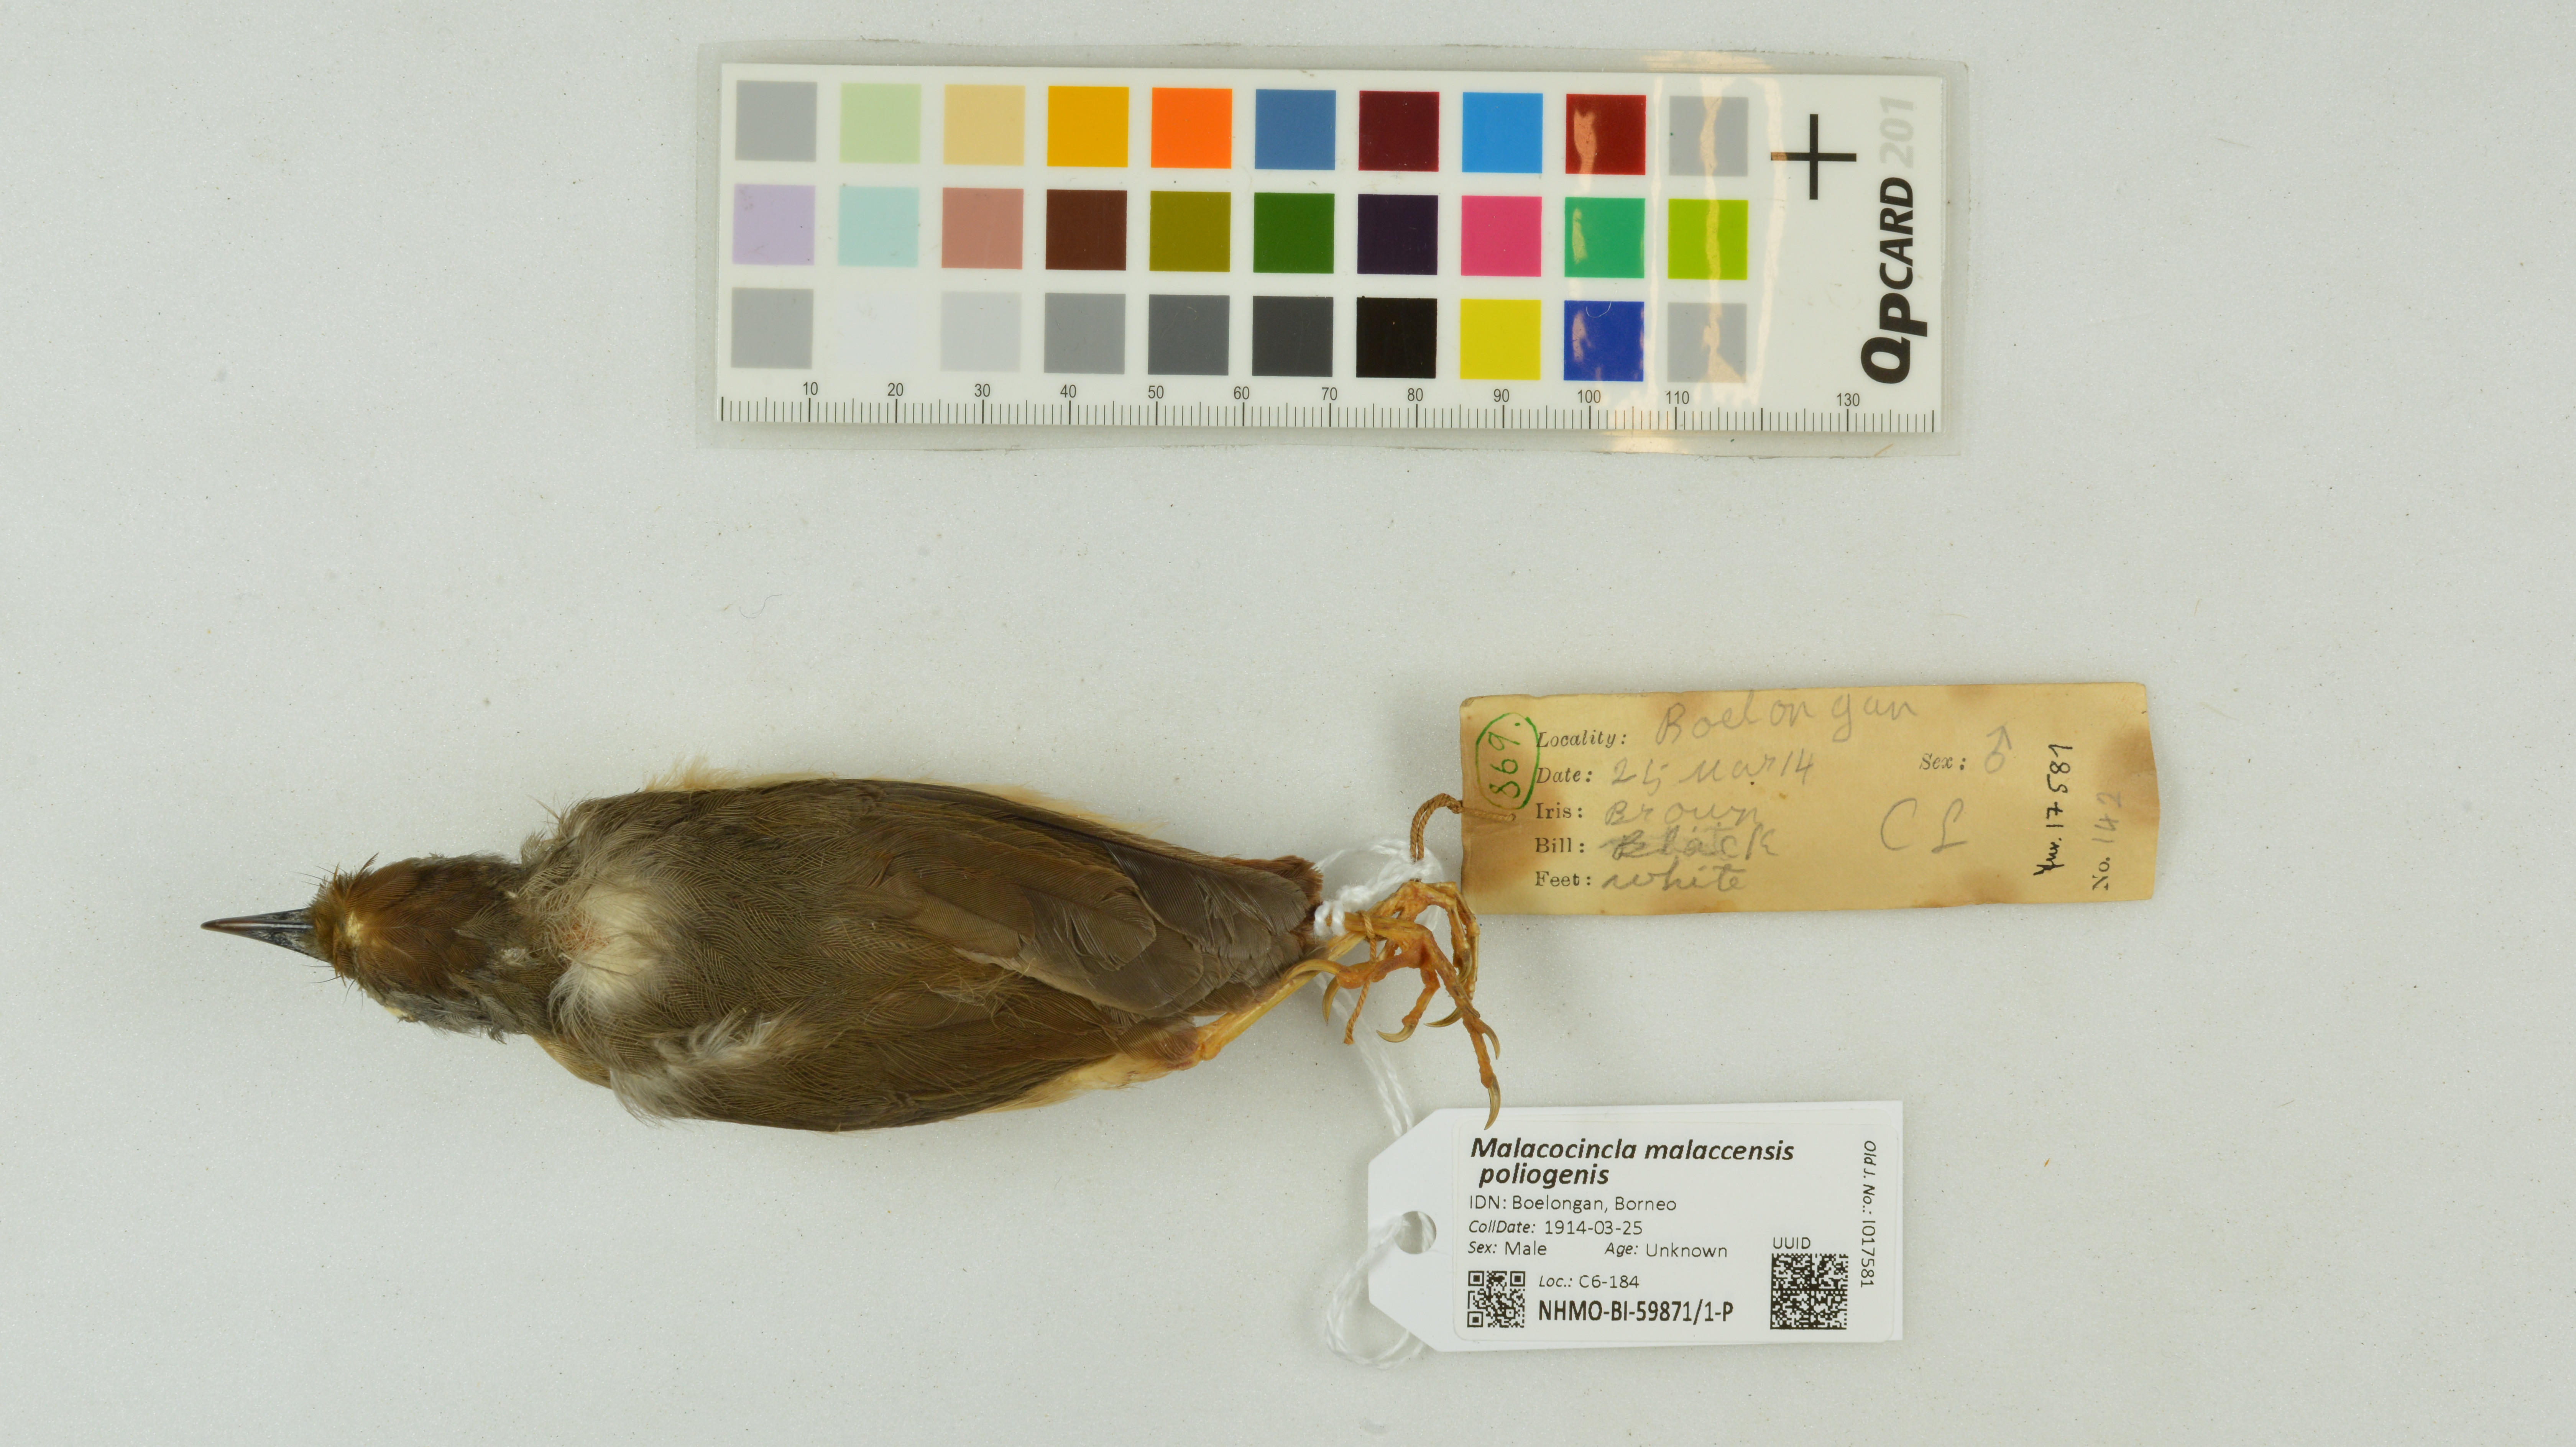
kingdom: Animalia
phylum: Chordata
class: Aves
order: Passeriformes
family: Pellorneidae
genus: Pellorneum
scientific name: Pellorneum malaccense
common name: Short-tailed babbler
